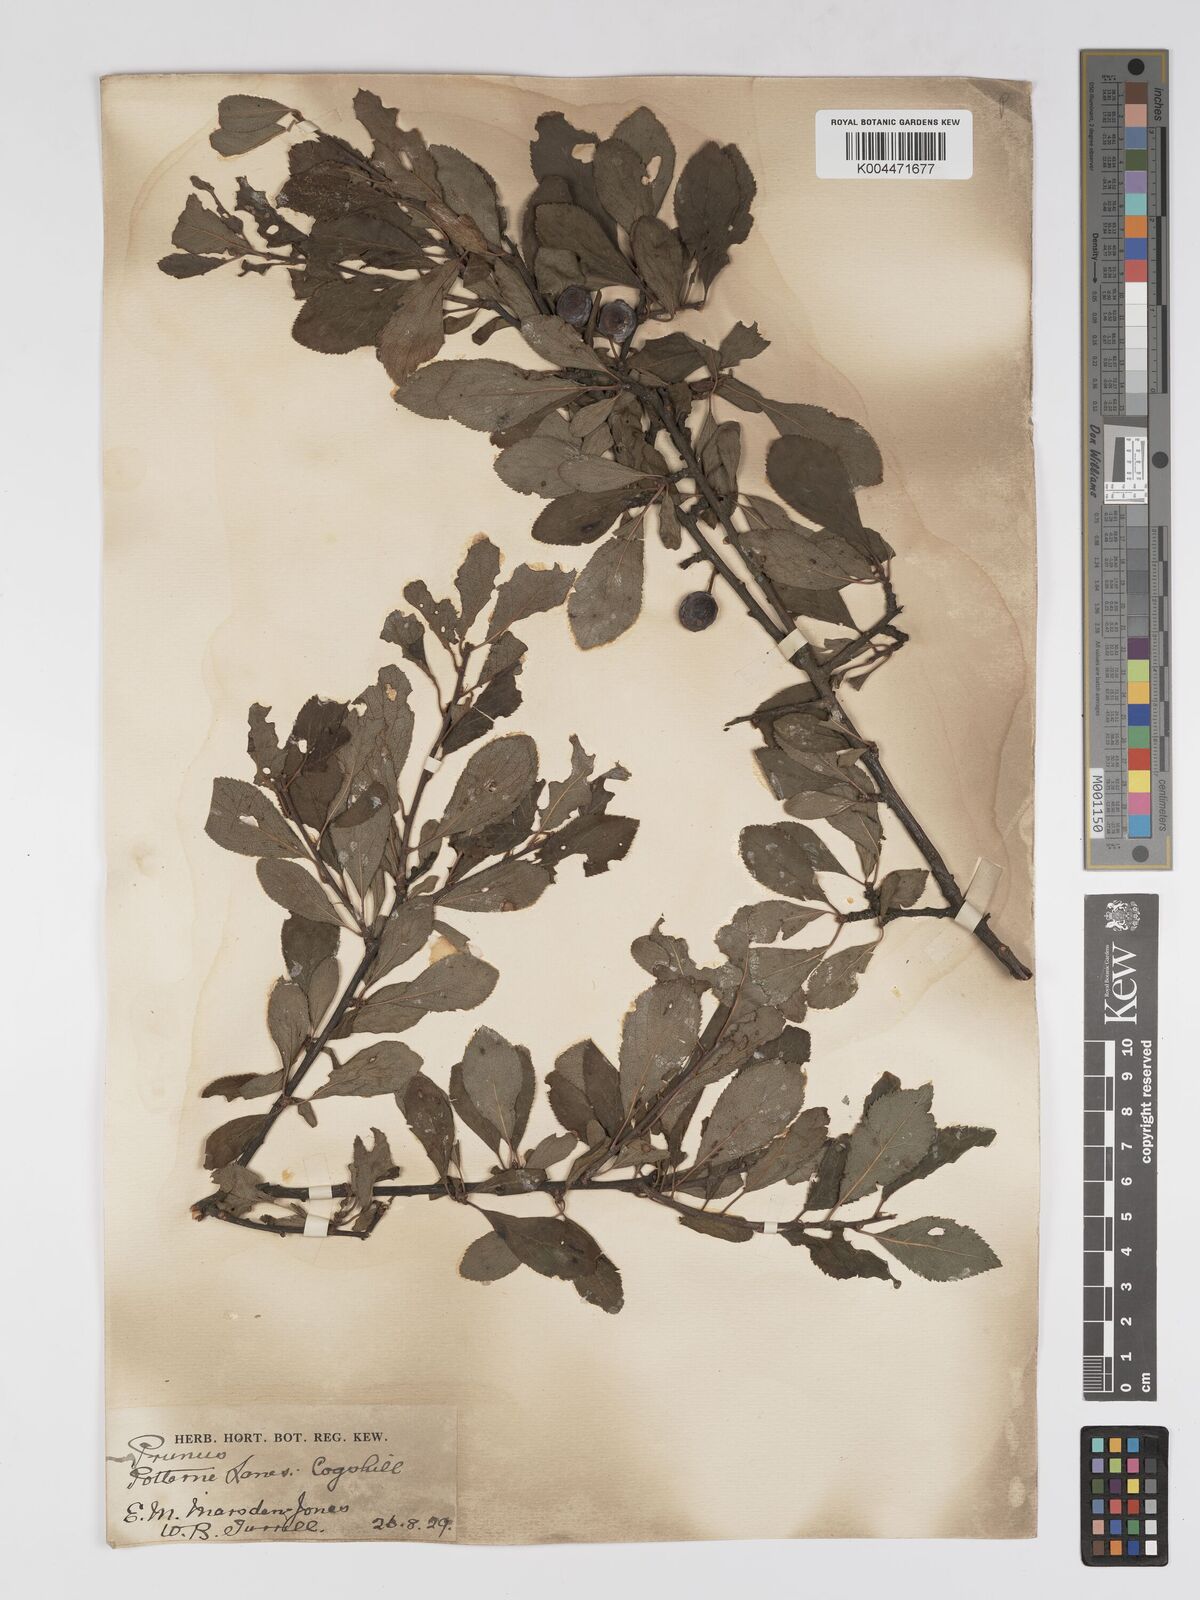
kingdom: Plantae
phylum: Tracheophyta
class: Magnoliopsida
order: Rosales
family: Rosaceae
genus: Prunus
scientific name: Prunus
